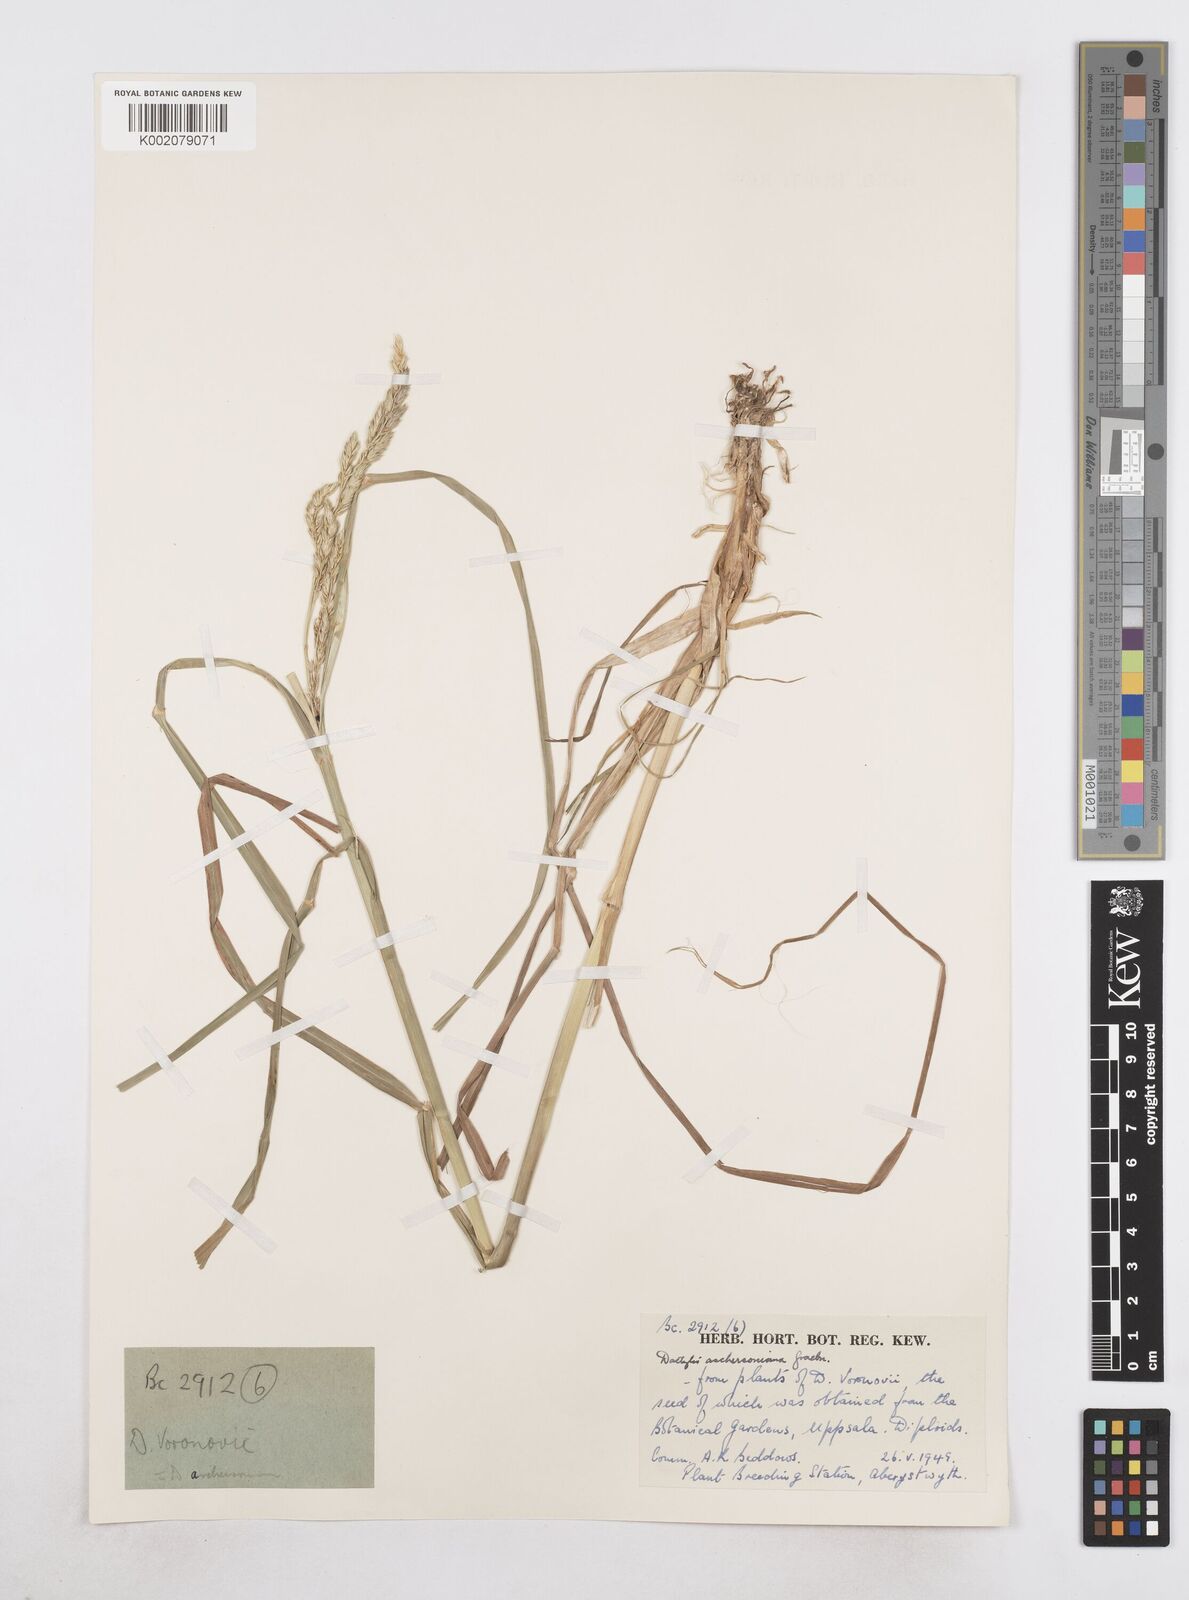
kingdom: Plantae
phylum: Tracheophyta
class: Liliopsida
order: Poales
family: Poaceae
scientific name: Poaceae
